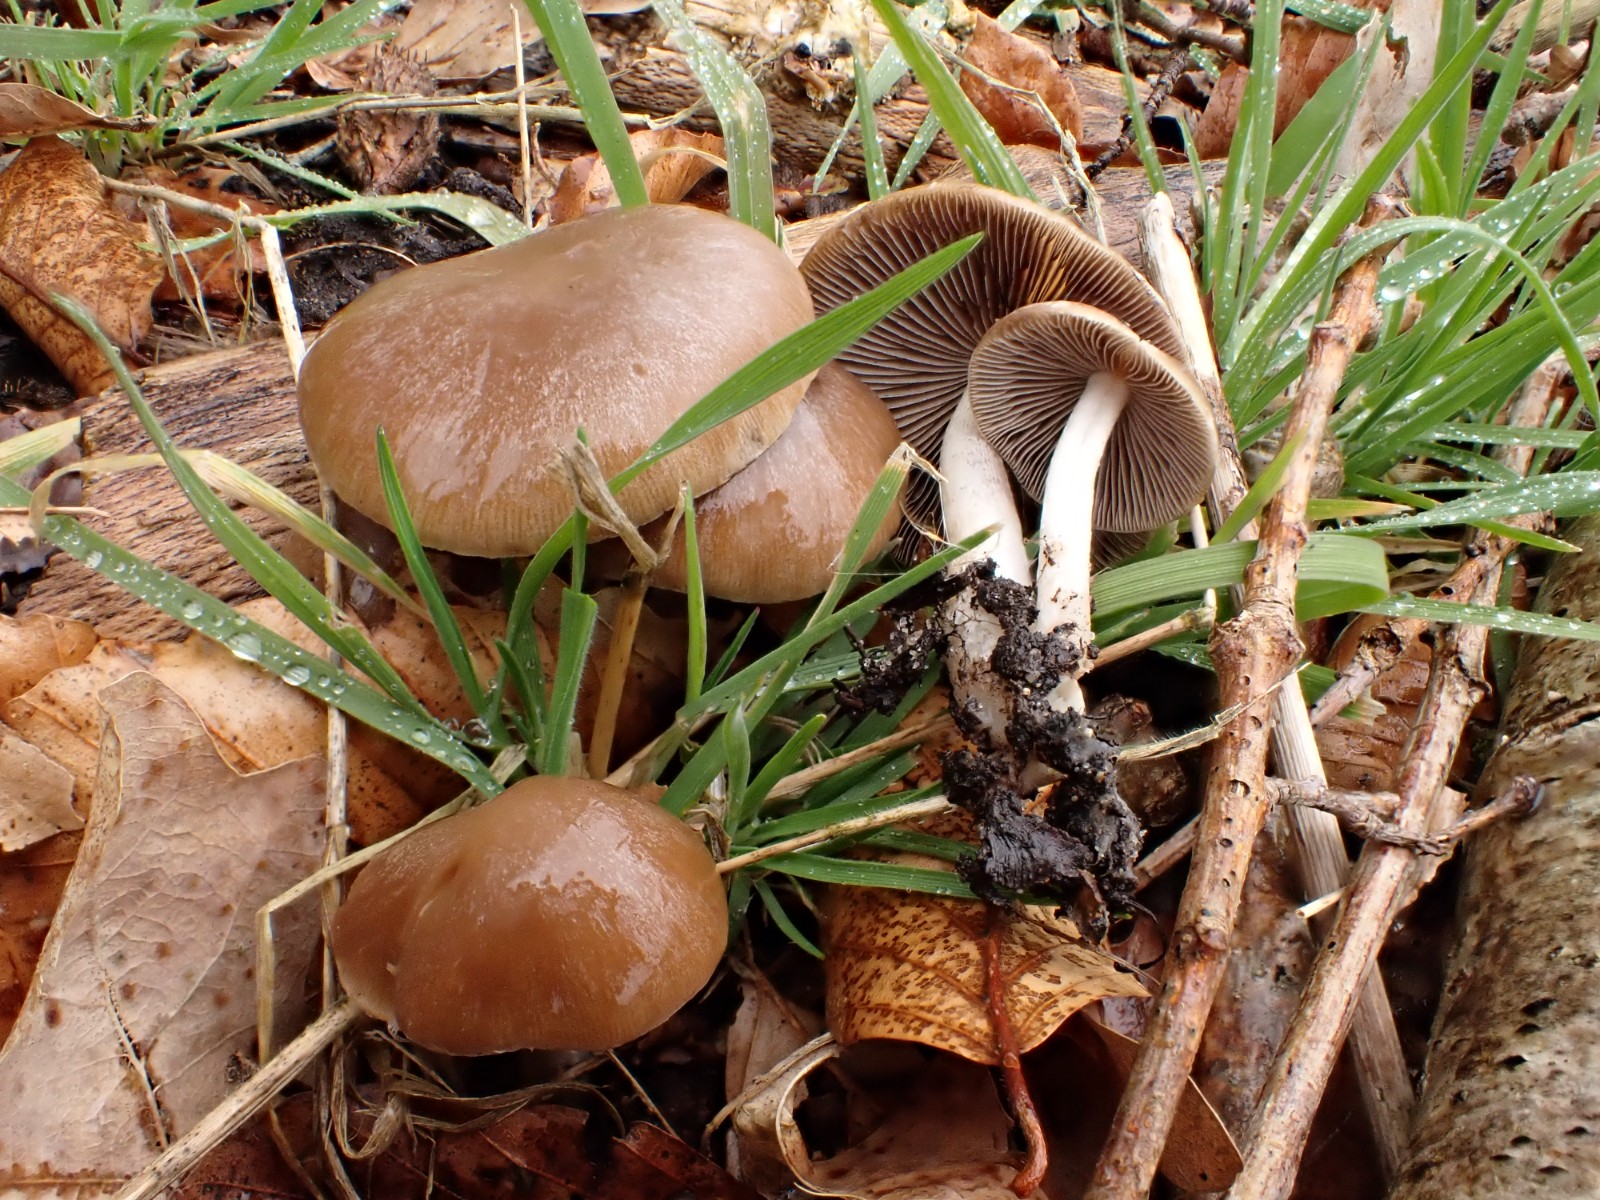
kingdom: Fungi
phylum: Basidiomycota
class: Agaricomycetes
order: Agaricales
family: Psathyrellaceae
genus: Psathyrella
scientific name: Psathyrella
